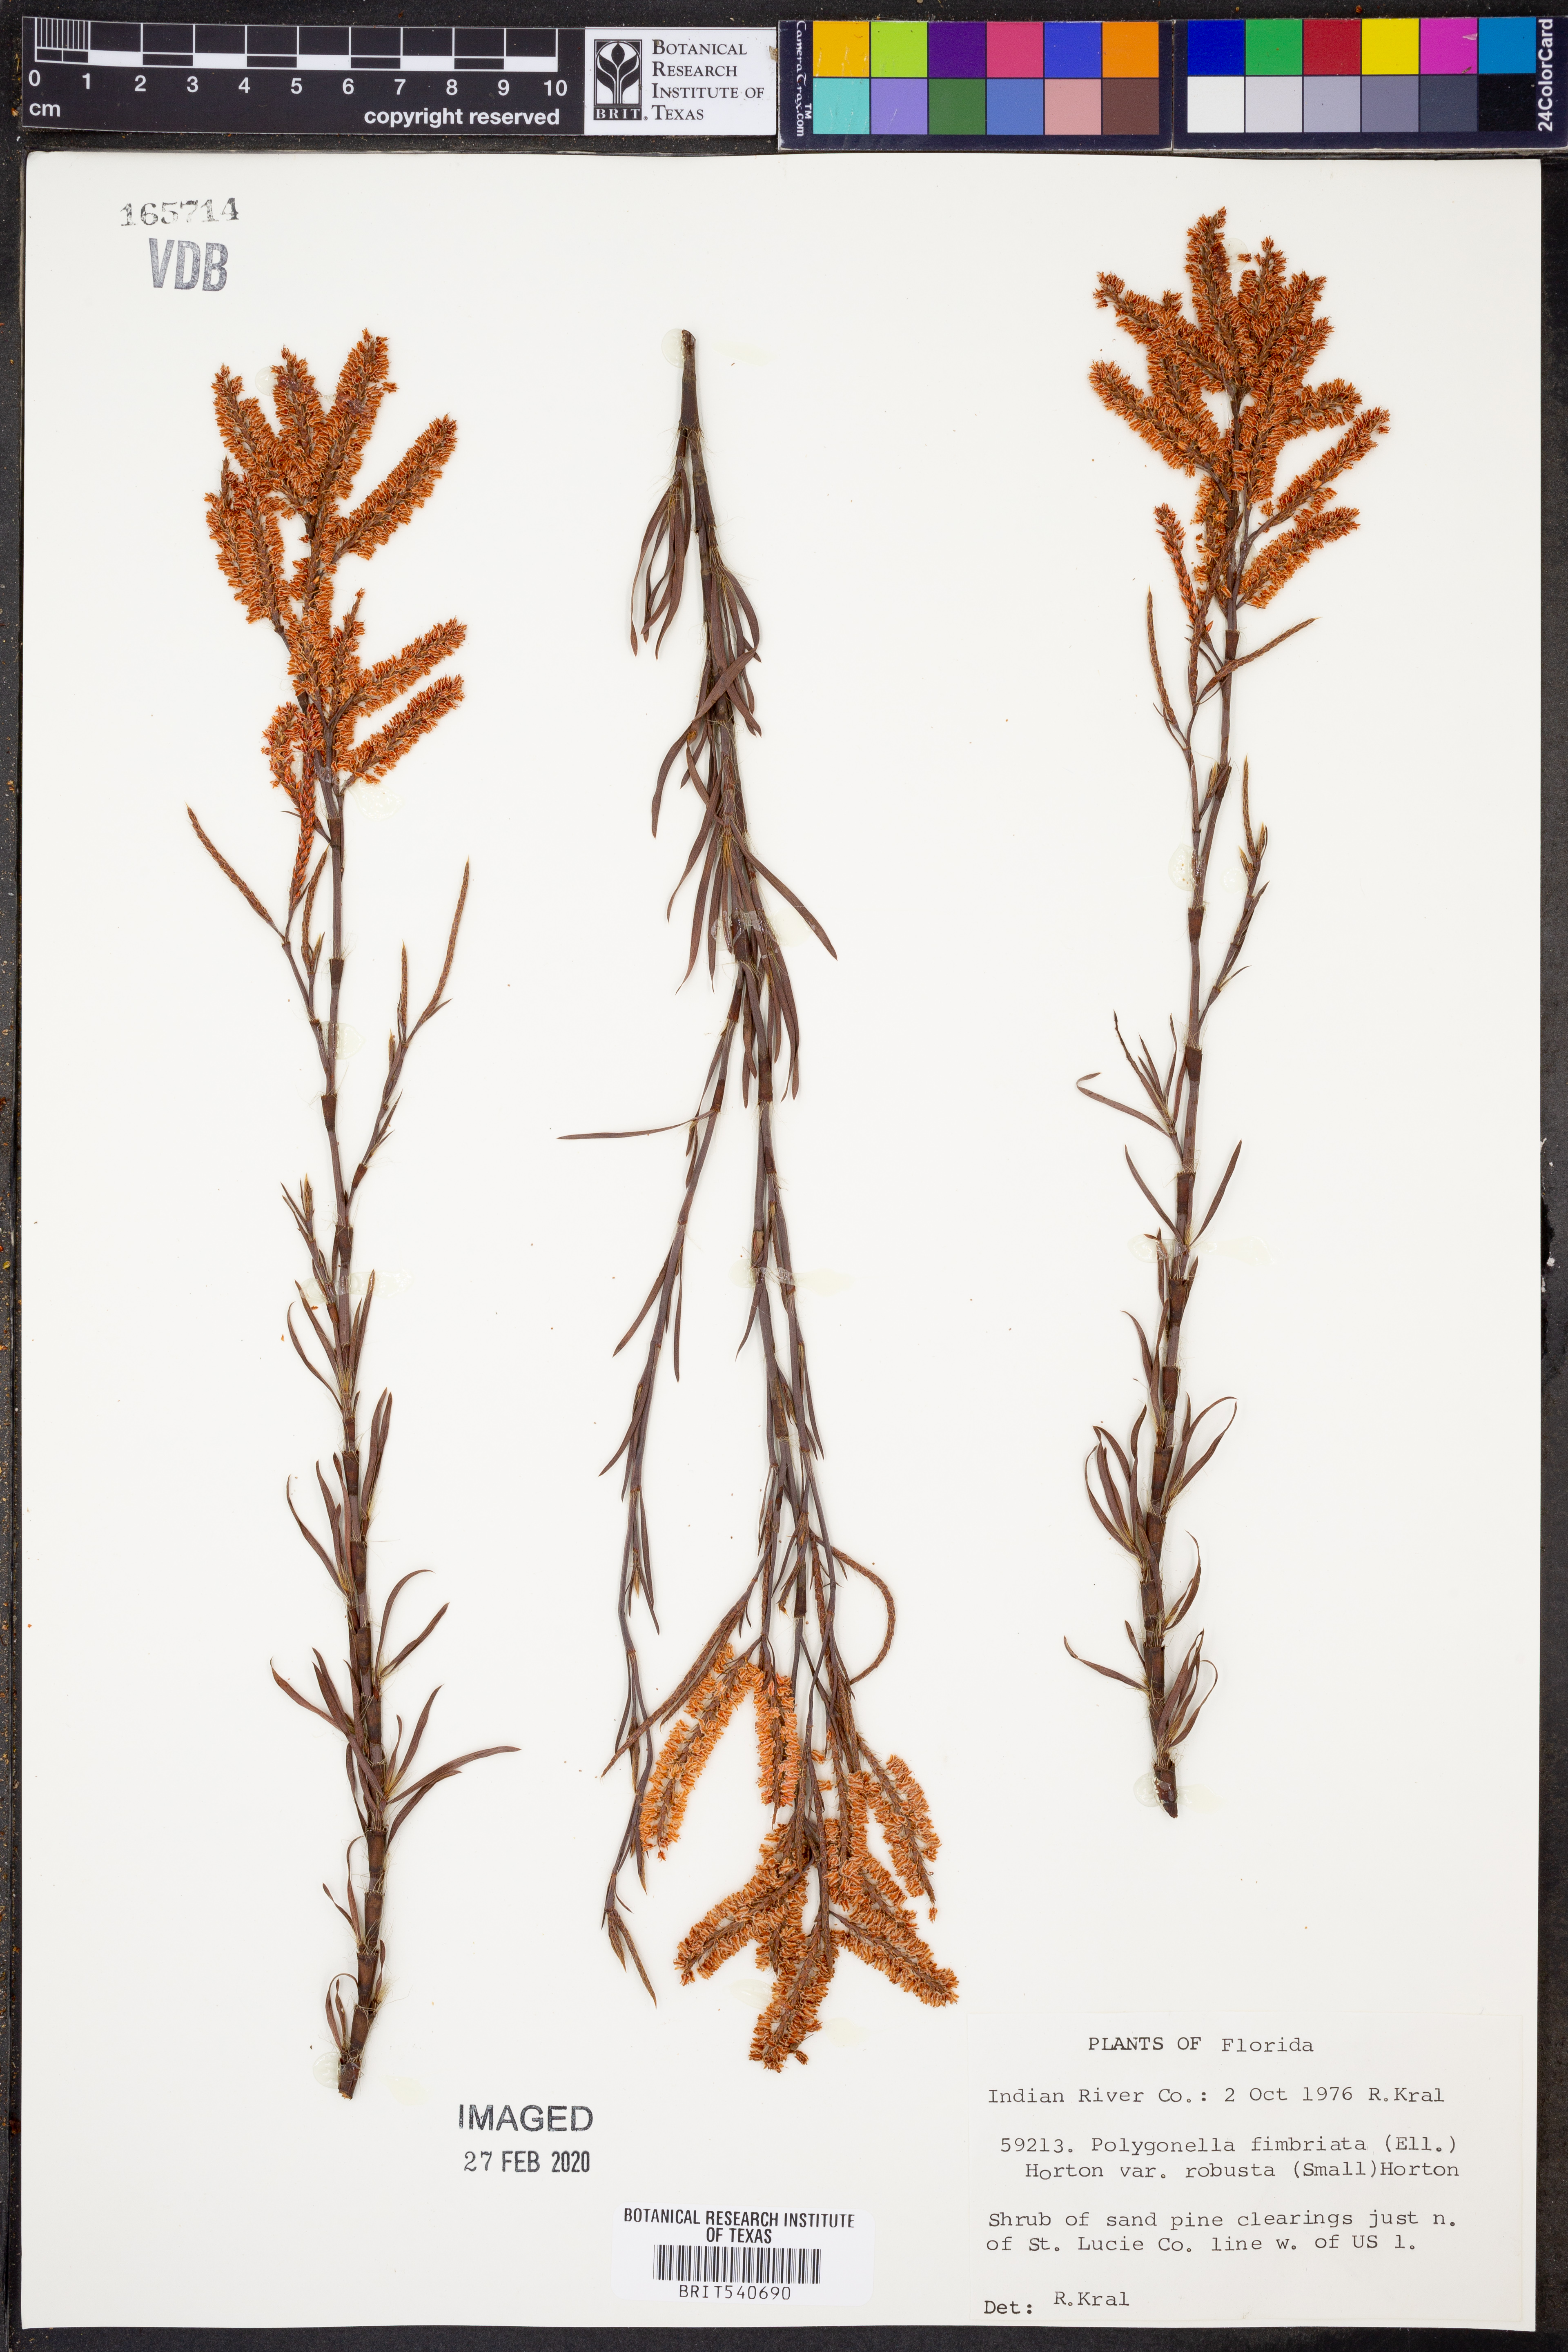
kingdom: Plantae
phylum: Tracheophyta
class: Magnoliopsida
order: Caryophyllales
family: Polygonaceae
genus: Polygonella
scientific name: Polygonella robusta
